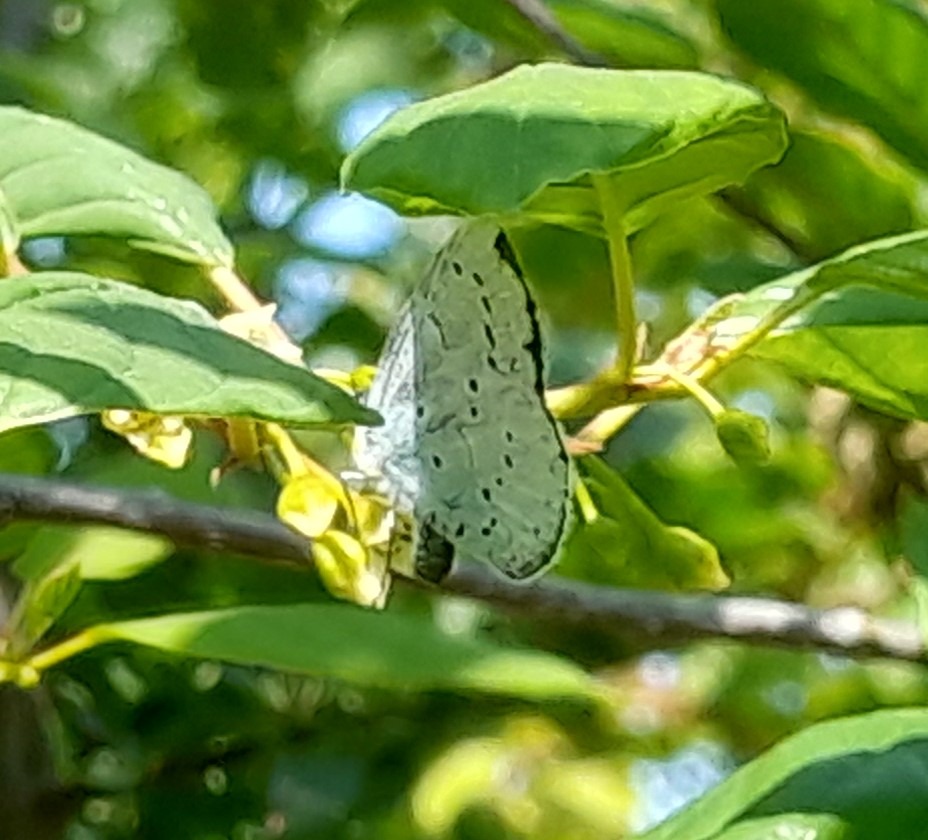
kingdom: Animalia
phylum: Arthropoda
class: Insecta
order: Lepidoptera
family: Lycaenidae
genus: Celastrina
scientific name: Celastrina argiolus
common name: Skovblåfugl
